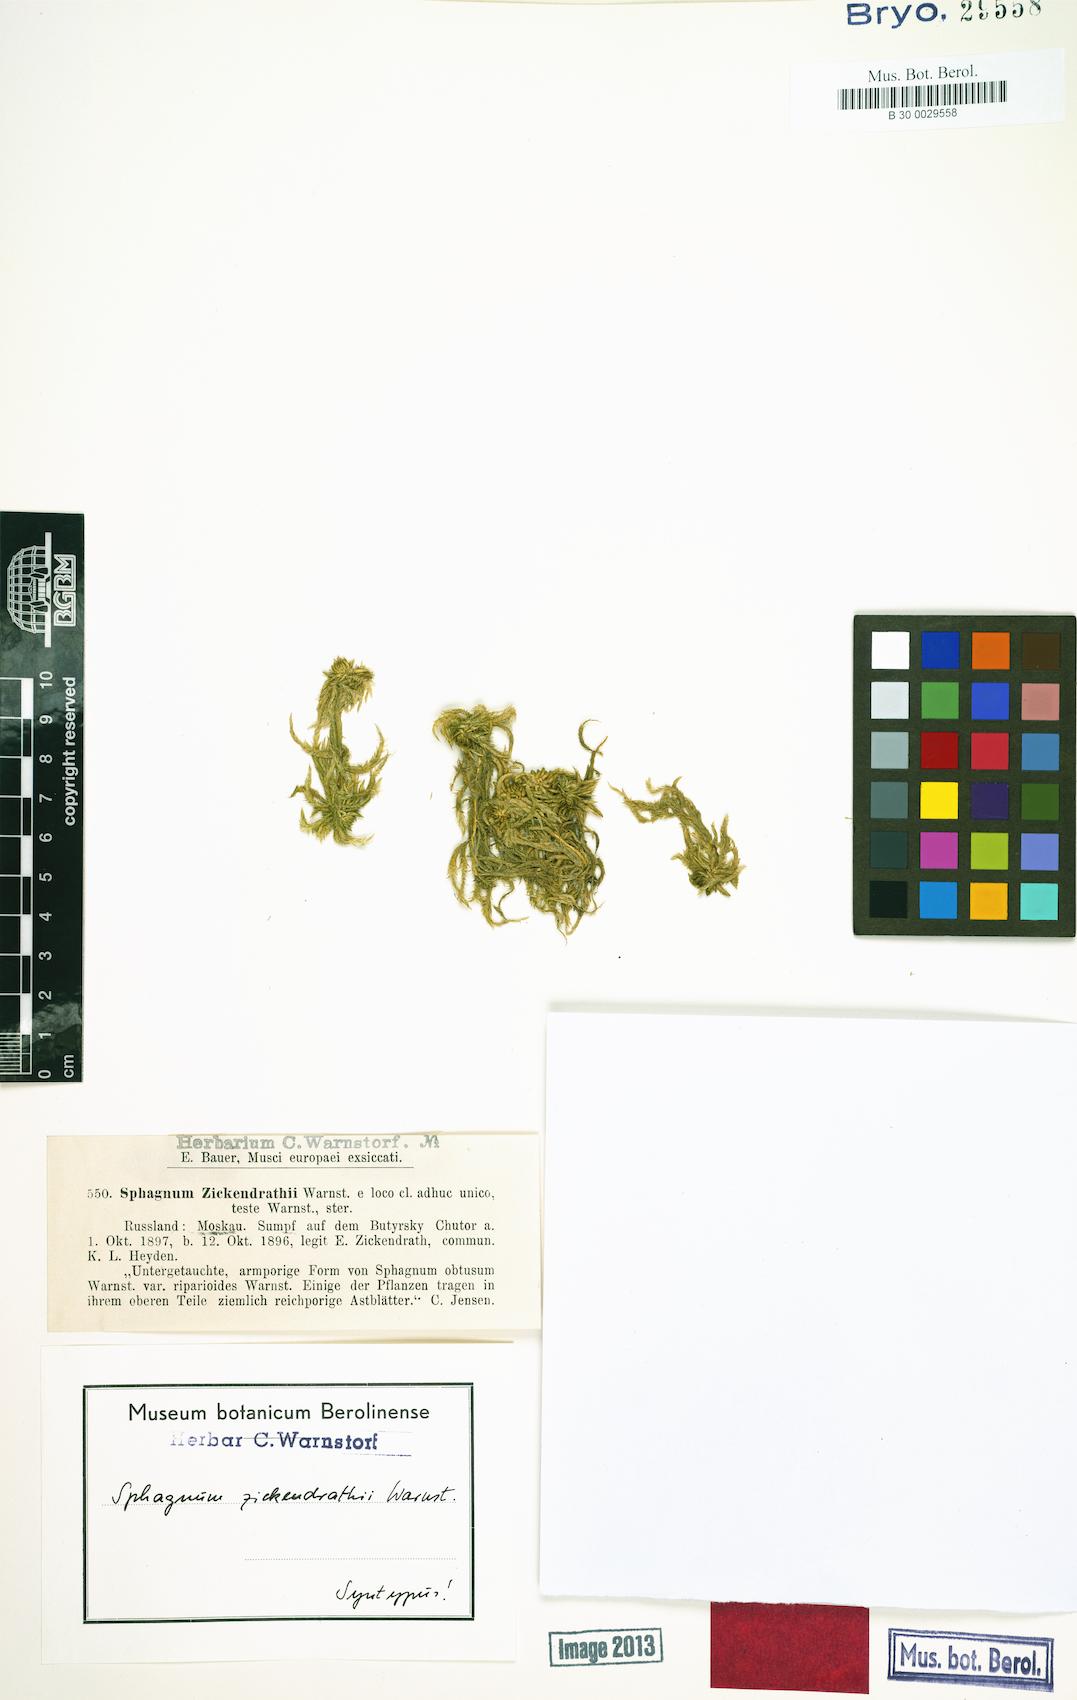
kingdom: Plantae
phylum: Bryophyta
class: Sphagnopsida
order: Sphagnales
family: Sphagnaceae
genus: Sphagnum
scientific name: Sphagnum obtusum
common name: Obtuse peat moss
